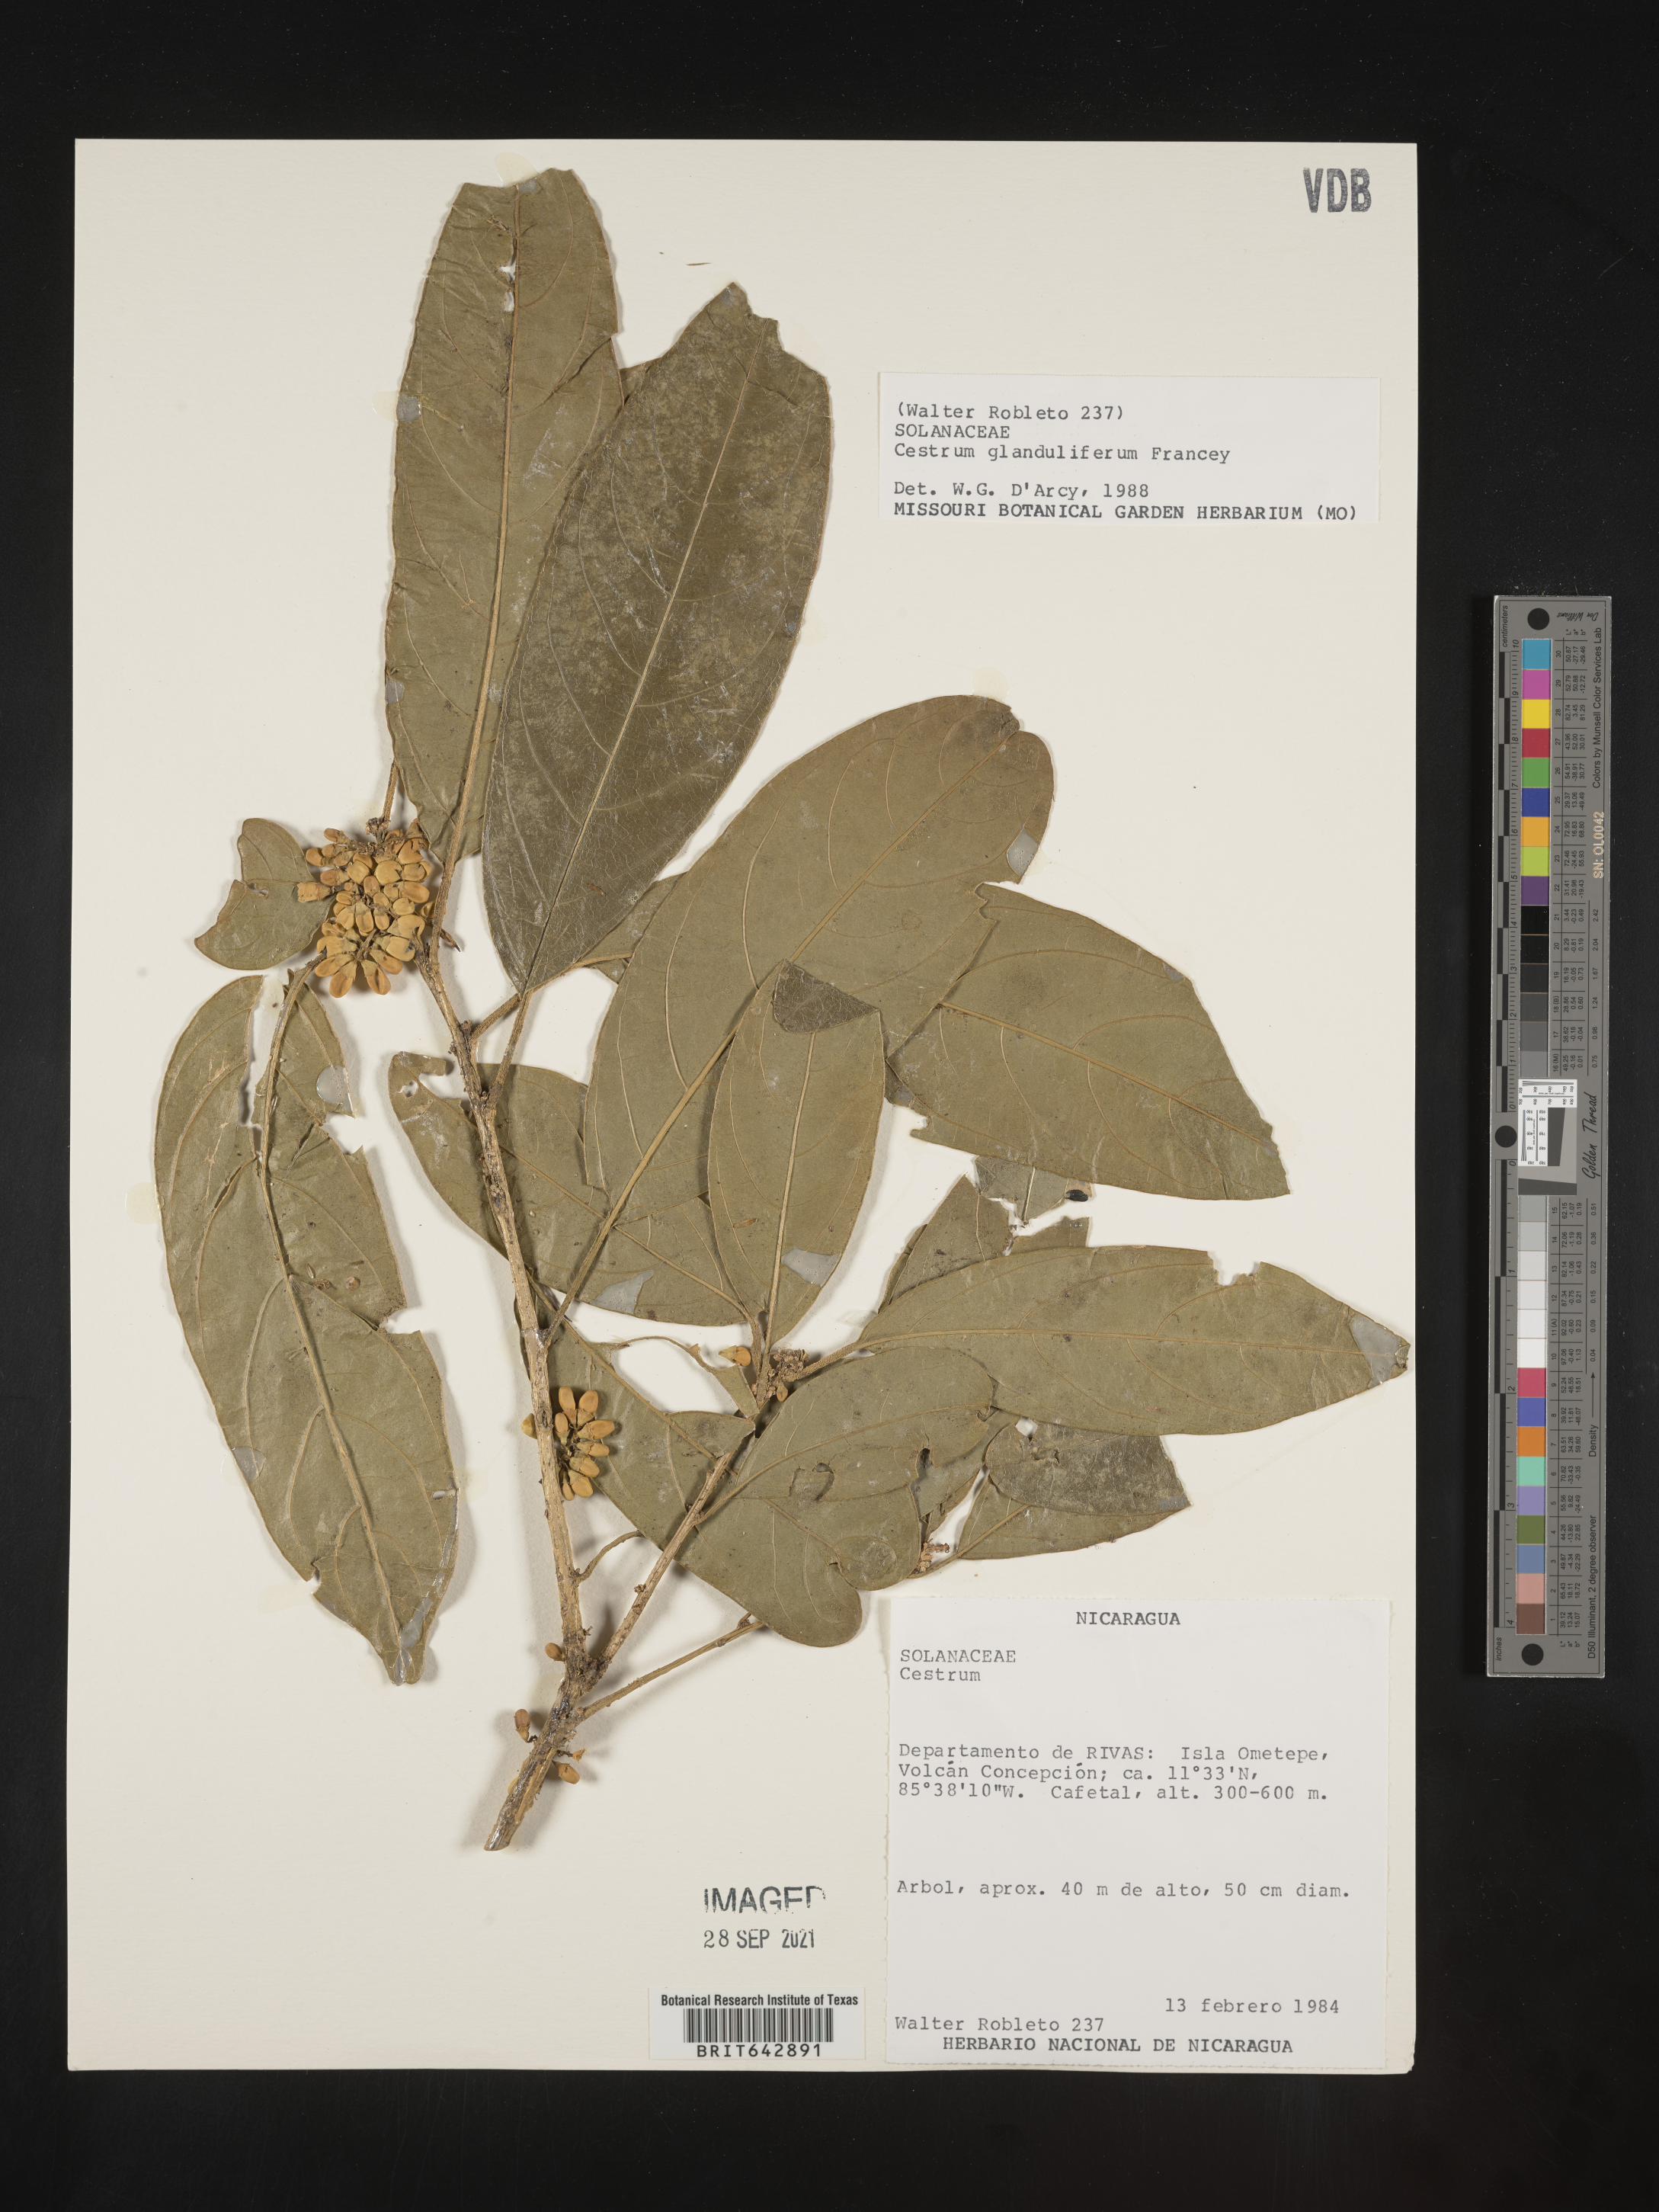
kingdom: Plantae
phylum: Tracheophyta
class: Magnoliopsida
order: Solanales
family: Solanaceae
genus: Cestrum
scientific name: Cestrum
